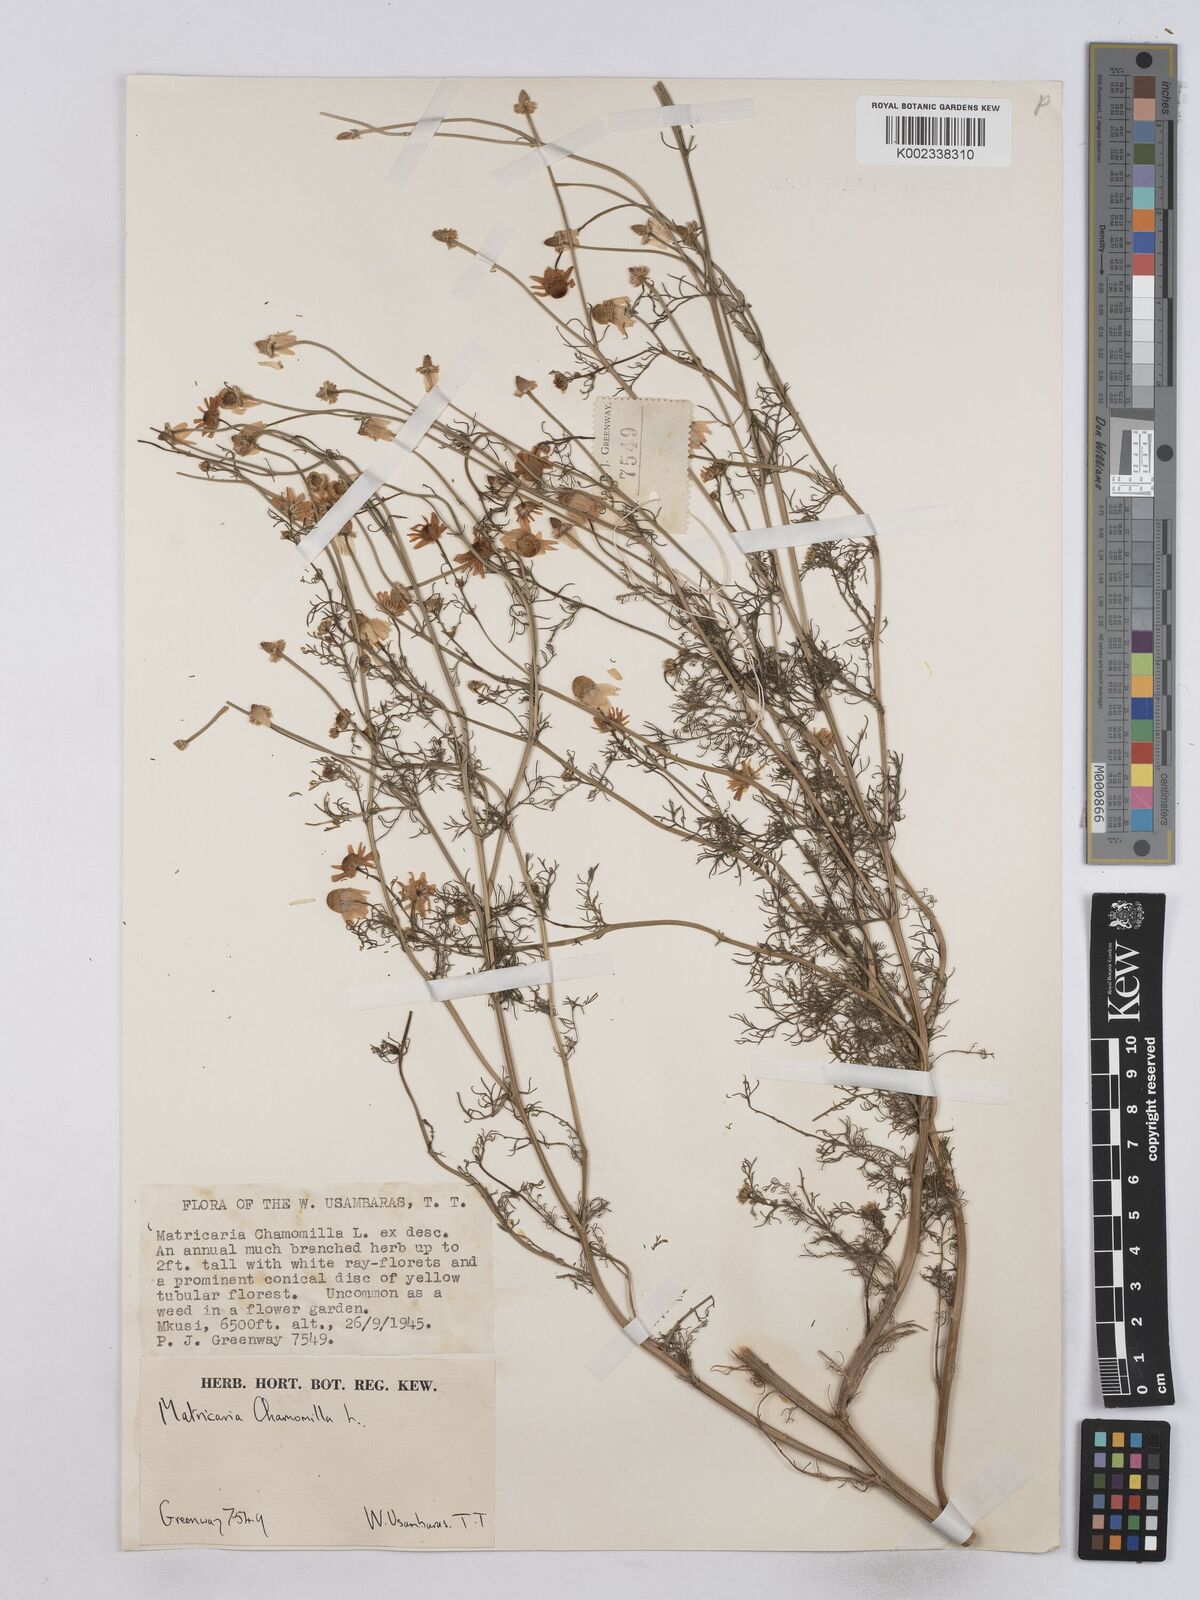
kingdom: Plantae
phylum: Tracheophyta
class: Magnoliopsida
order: Asterales
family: Asteraceae
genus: Matricaria
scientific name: Matricaria chamomilla
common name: Scented mayweed
